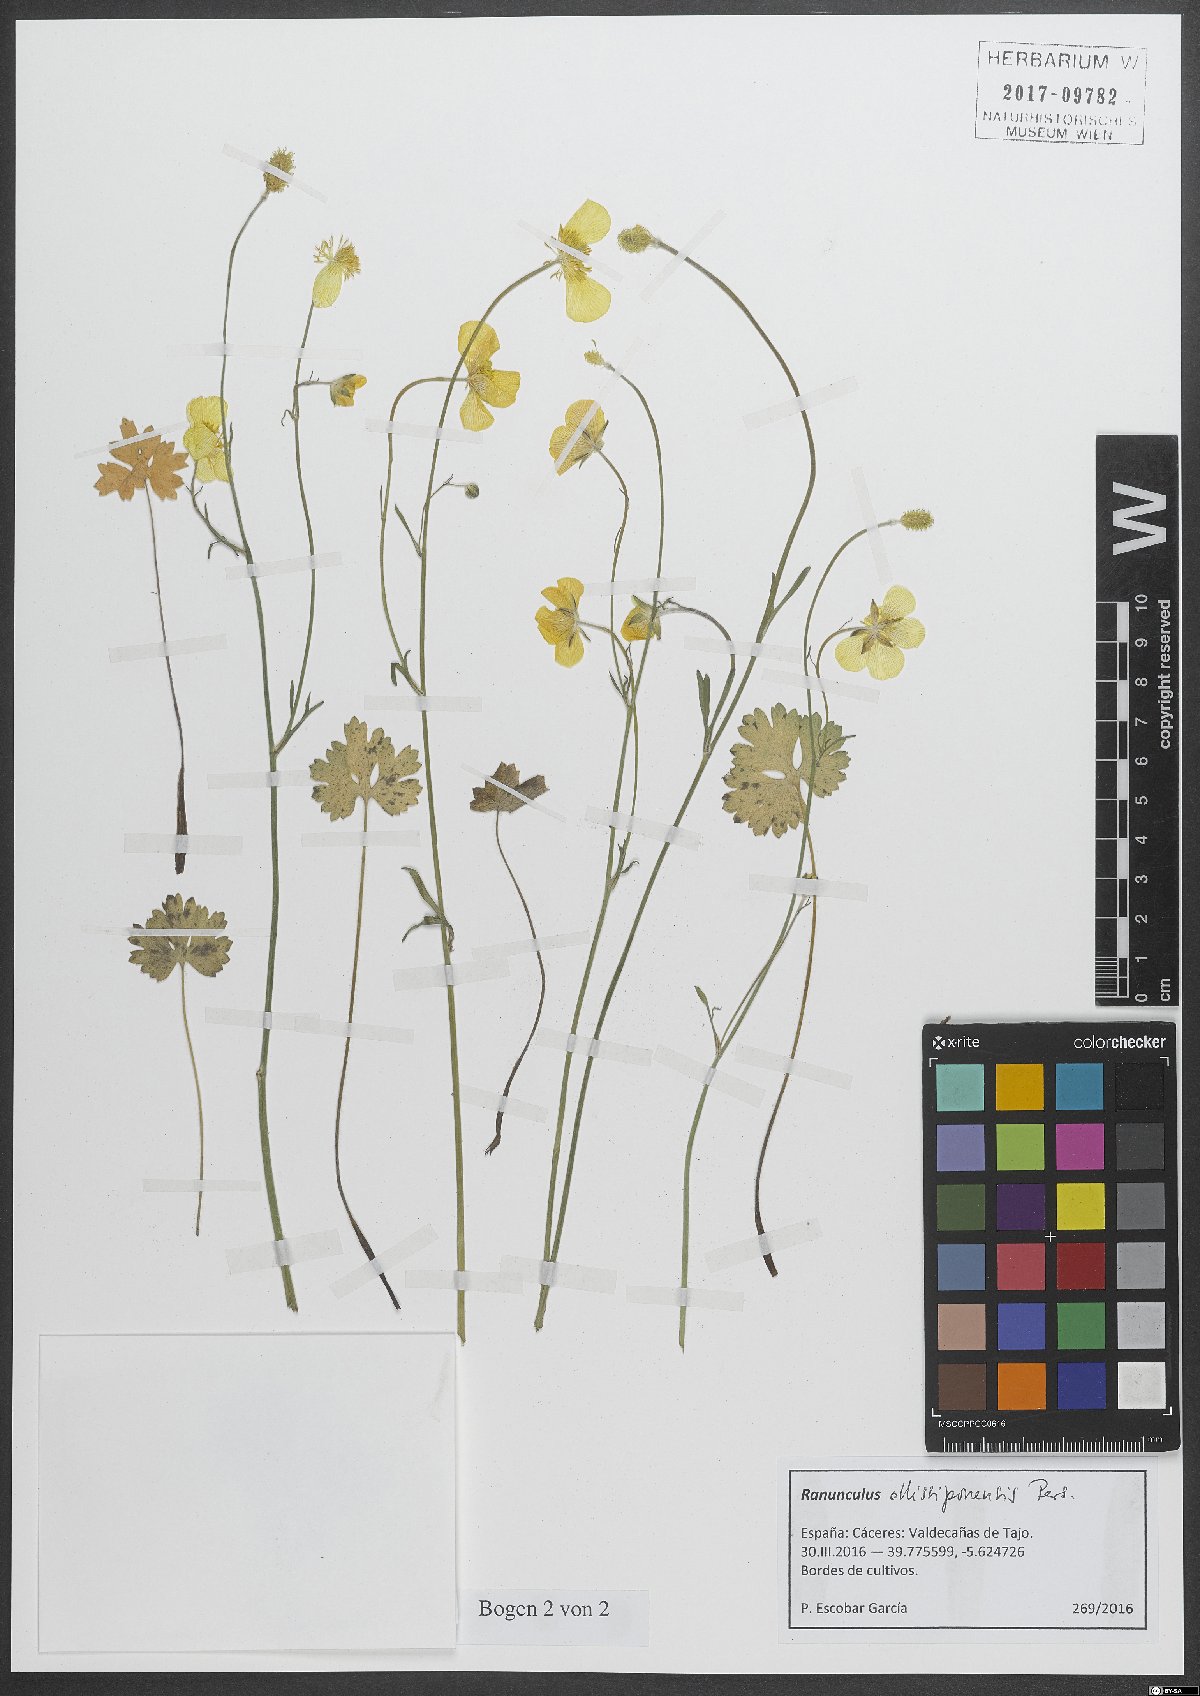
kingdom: Plantae
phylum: Tracheophyta
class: Magnoliopsida
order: Ranunculales
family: Ranunculaceae
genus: Ranunculus
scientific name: Ranunculus ollissiponensis
